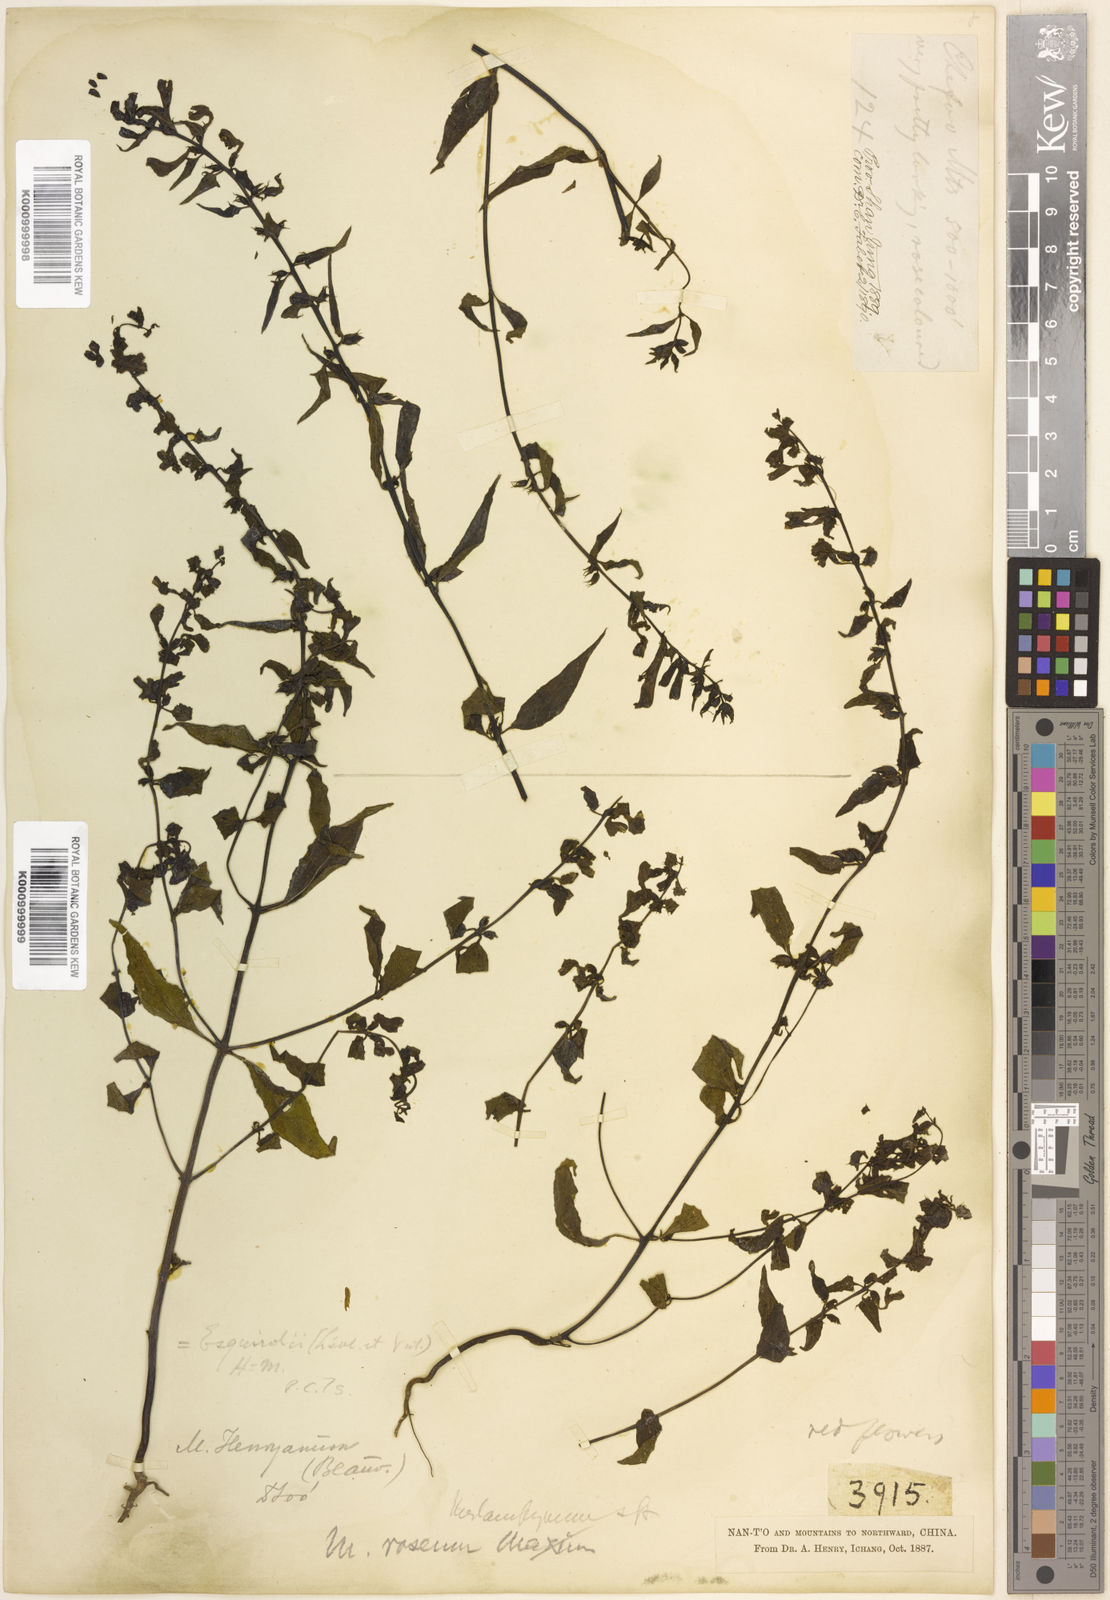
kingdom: Plantae
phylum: Tracheophyta
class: Magnoliopsida
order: Lamiales
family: Orobanchaceae
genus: Melampyrum
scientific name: Melampyrum
